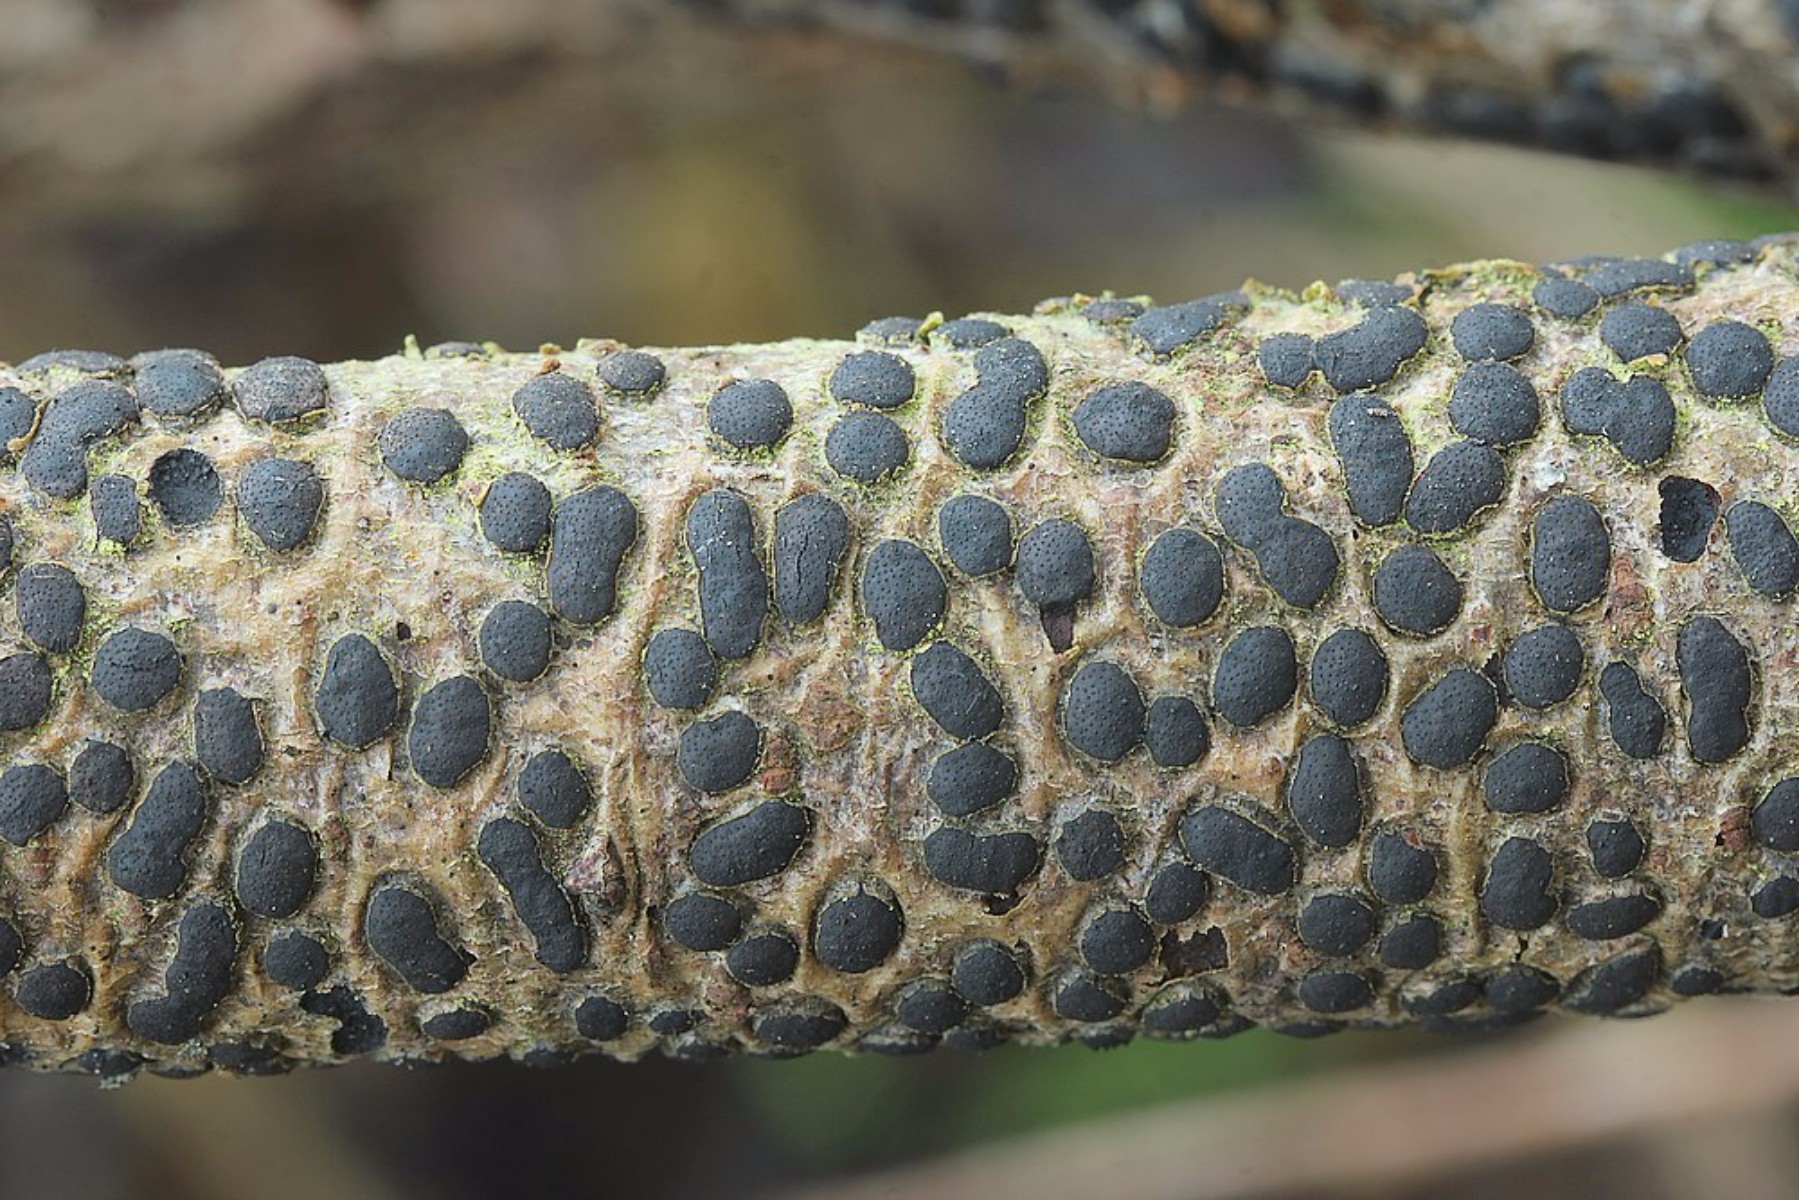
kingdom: Fungi
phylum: Ascomycota
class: Sordariomycetes
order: Xylariales
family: Diatrypaceae
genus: Diatrype
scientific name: Diatrype bullata
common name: pile-kulskorpe
